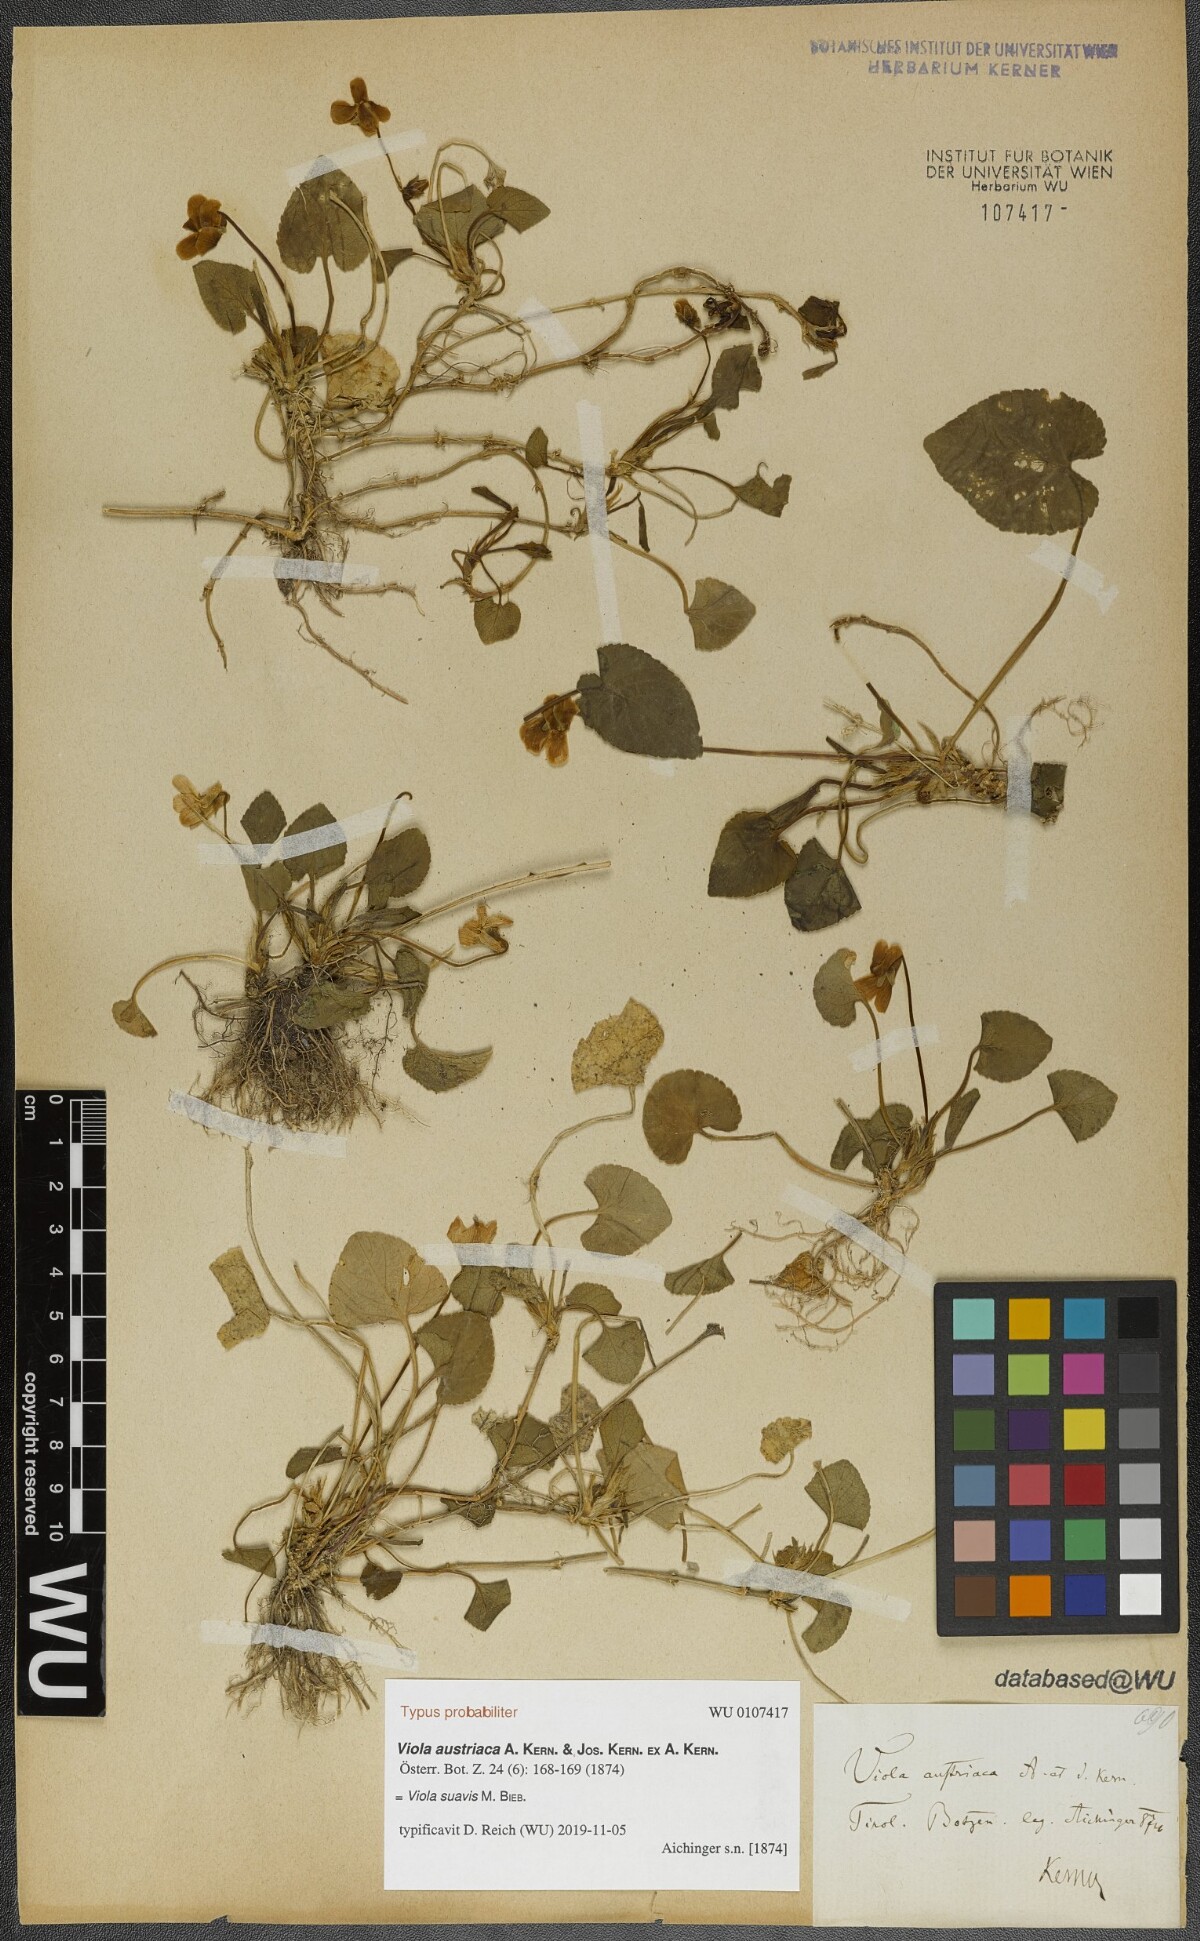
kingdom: Plantae
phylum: Tracheophyta
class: Magnoliopsida
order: Malpighiales
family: Violaceae
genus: Viola
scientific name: Viola suavis
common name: Russian violet
